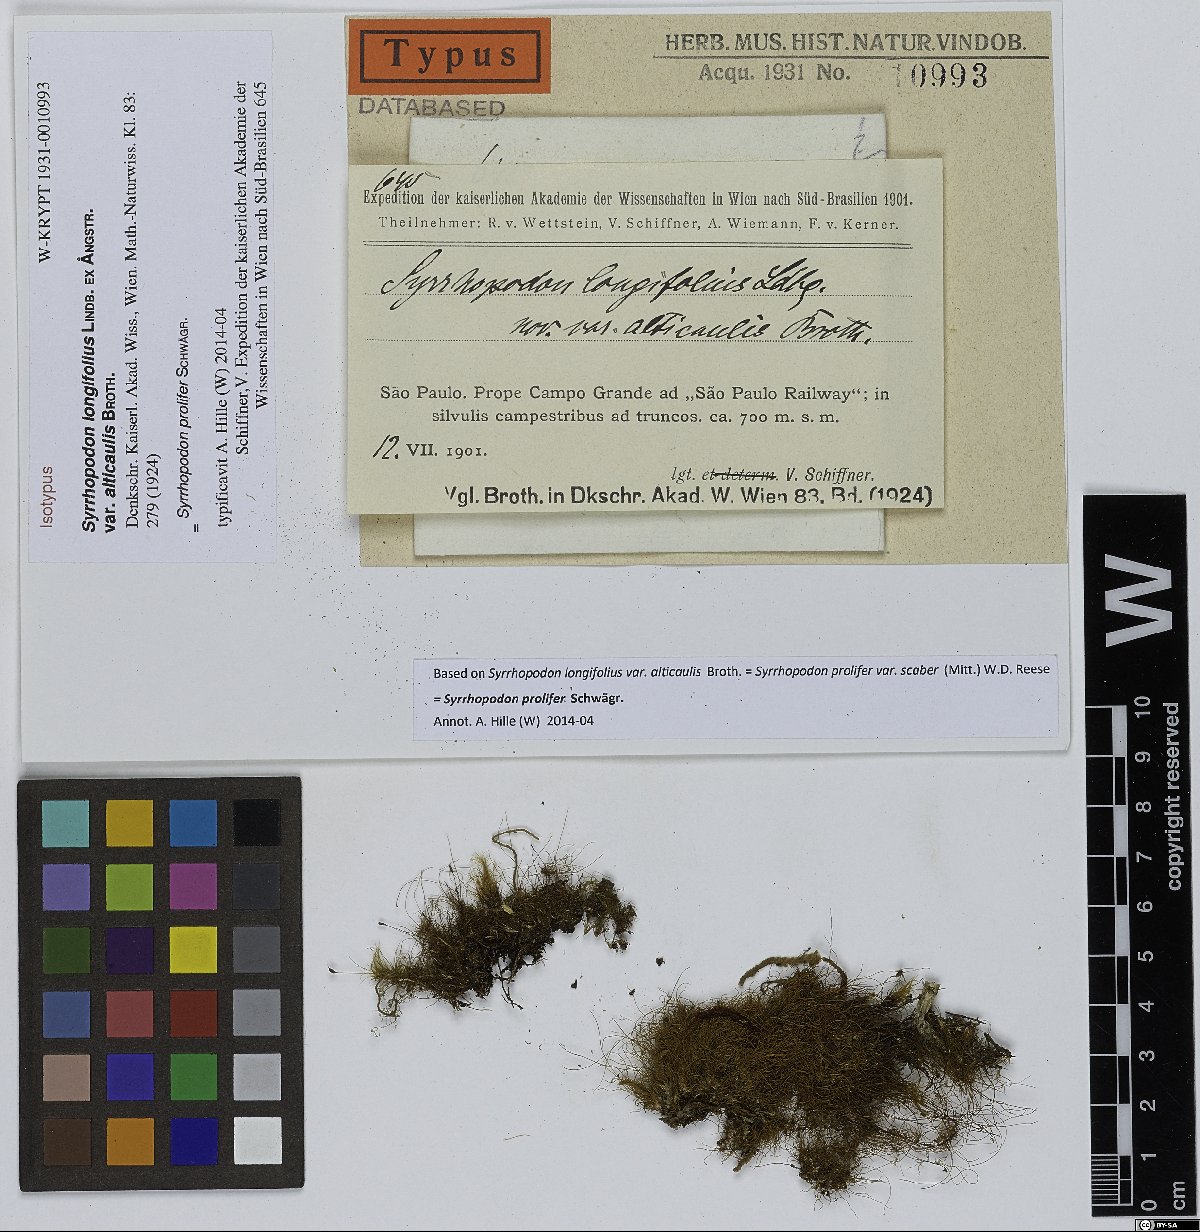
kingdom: Plantae
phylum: Bryophyta
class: Bryopsida
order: Dicranales
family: Calymperaceae
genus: Syrrhopodon
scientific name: Syrrhopodon prolifer
